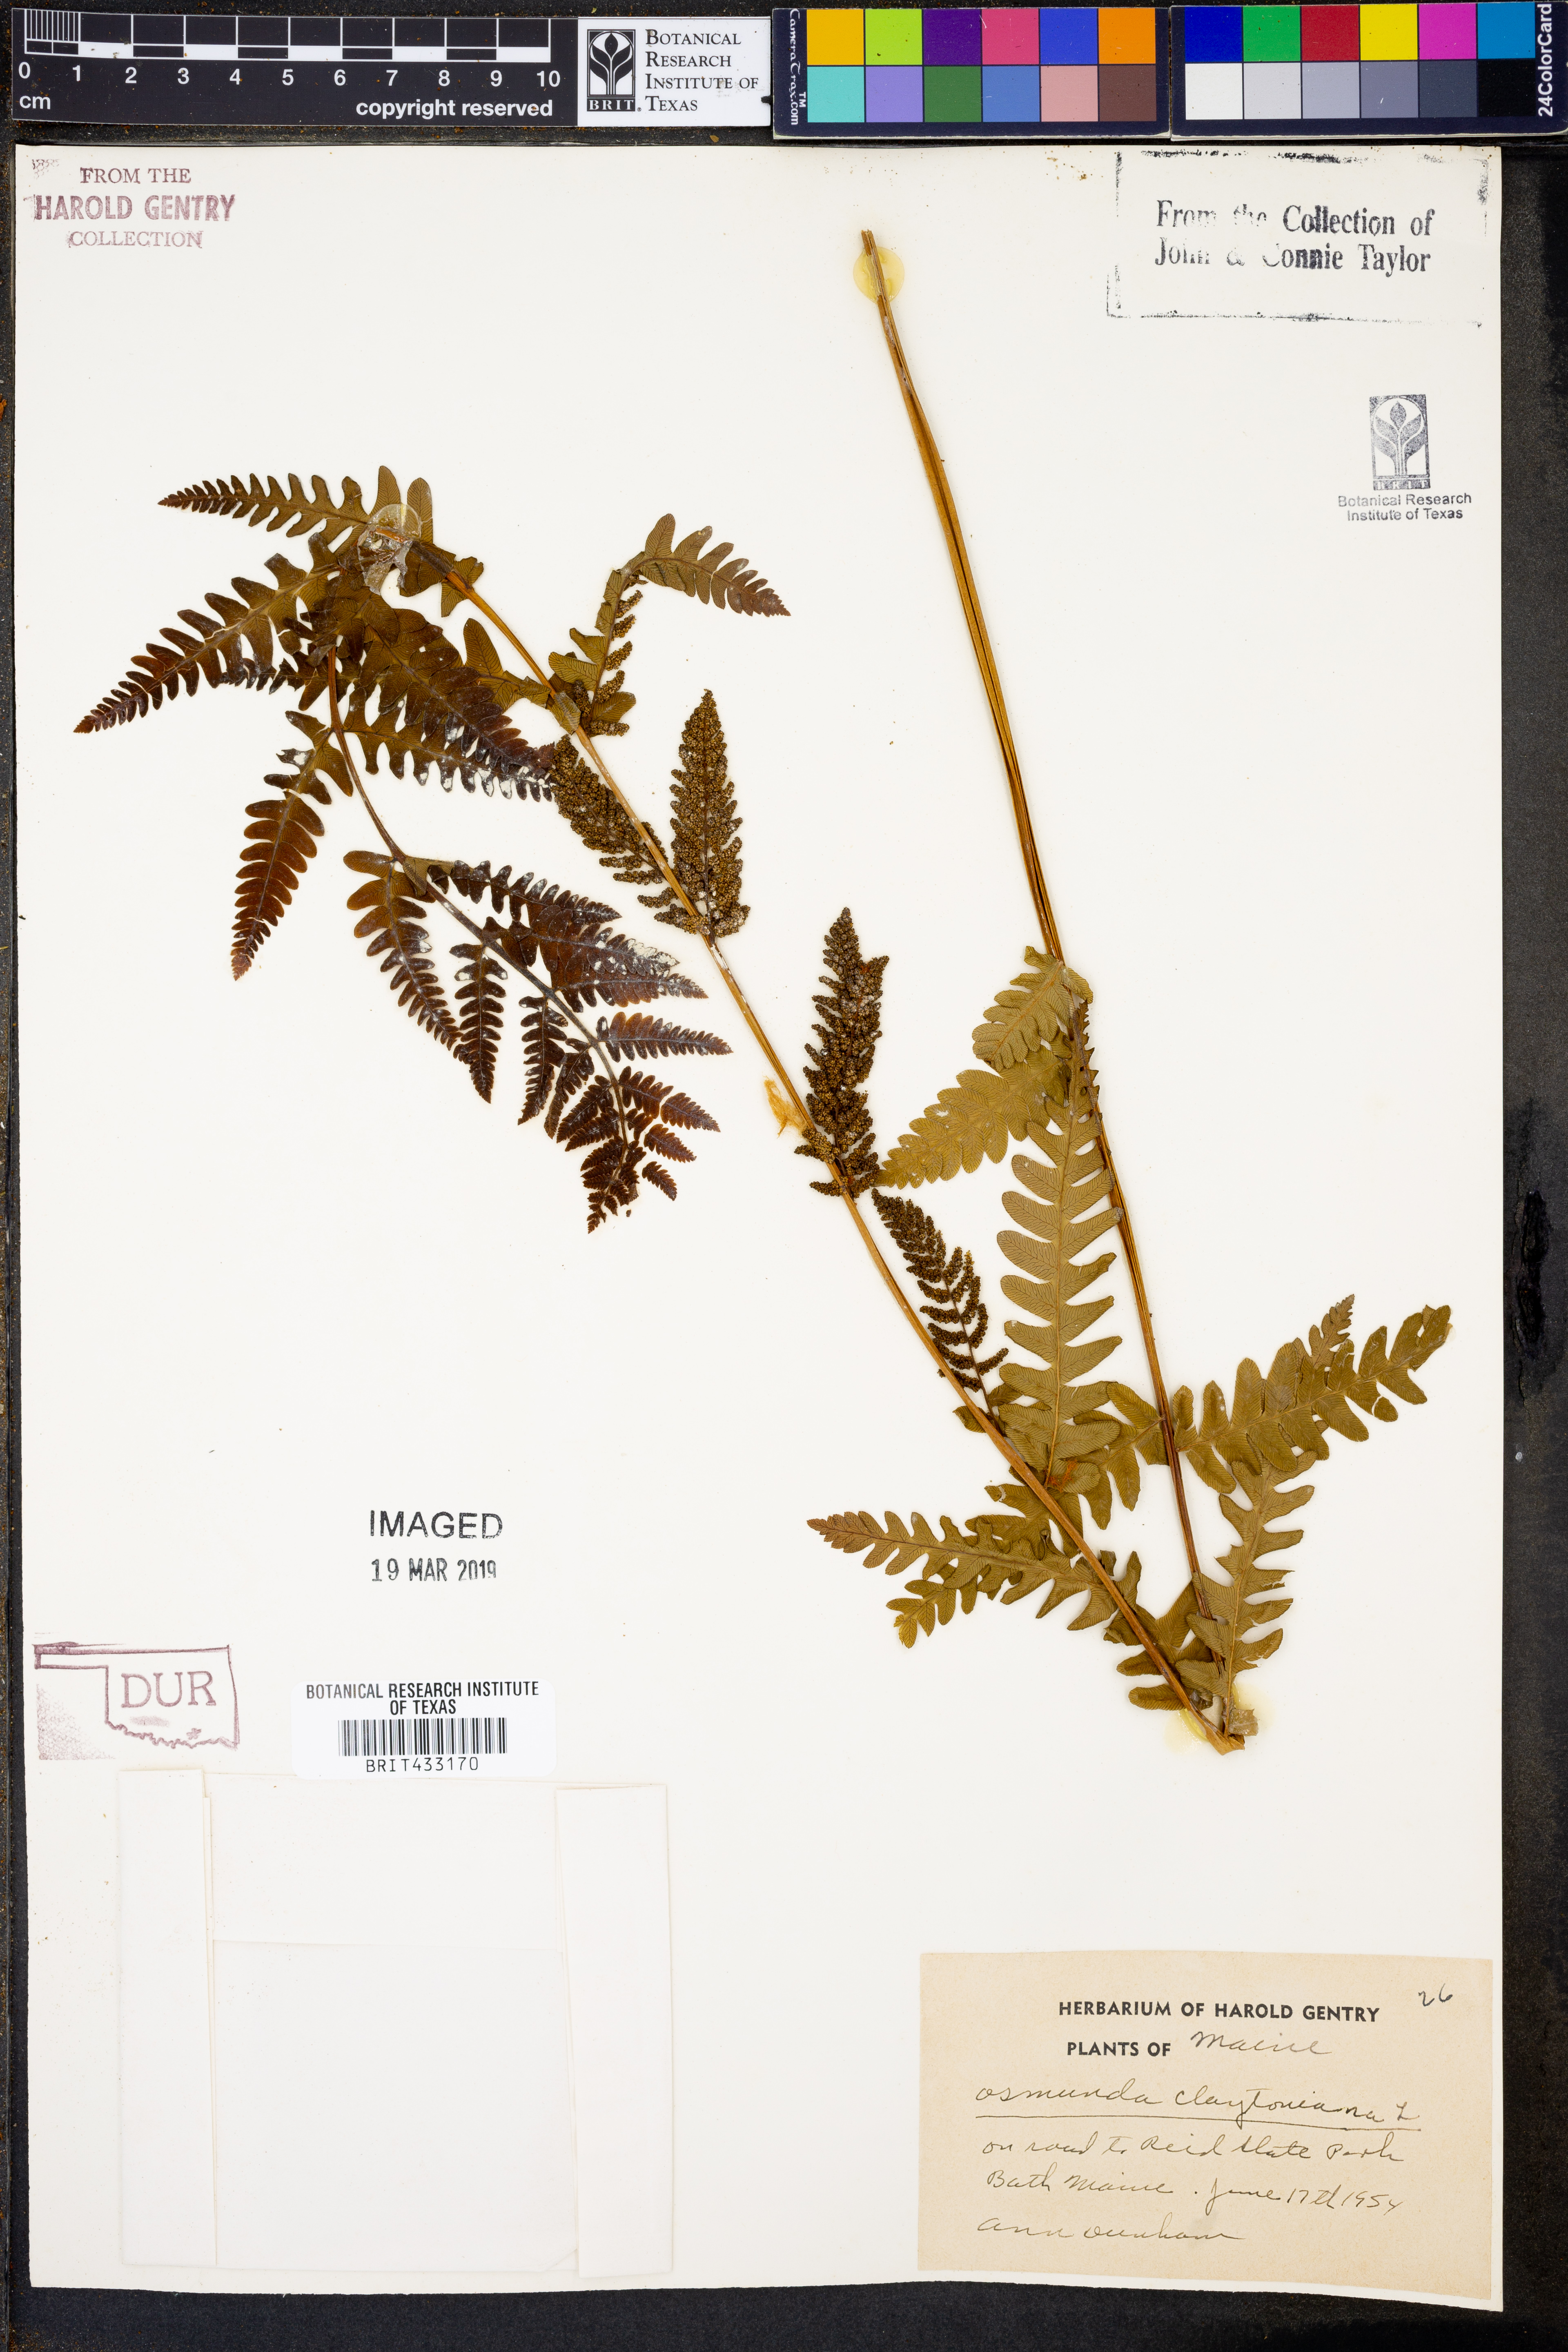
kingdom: Plantae
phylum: Tracheophyta
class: Polypodiopsida
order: Osmundales
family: Osmundaceae
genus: Claytosmunda
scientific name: Claytosmunda claytoniana
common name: Clayton's fern
